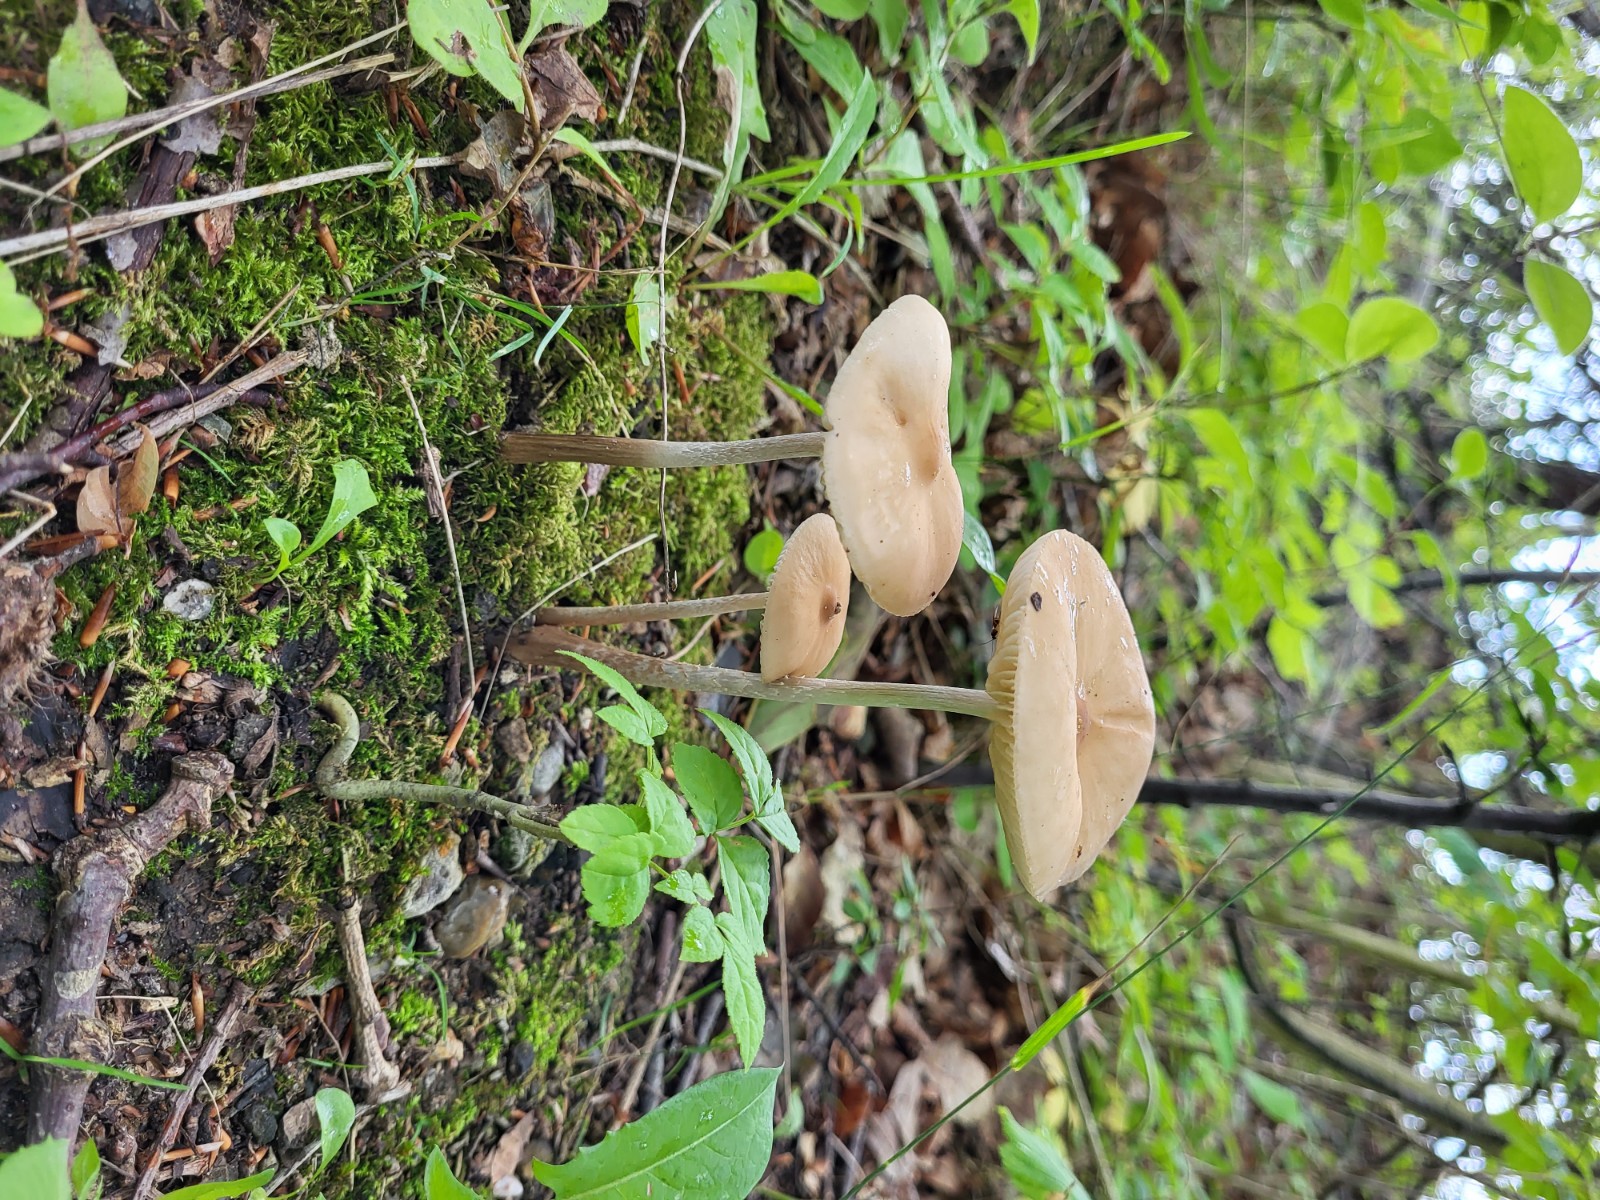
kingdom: Fungi
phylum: Basidiomycota
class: Agaricomycetes
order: Agaricales
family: Physalacriaceae
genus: Hymenopellis
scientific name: Hymenopellis radicata
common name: almindelig pælerodshat
